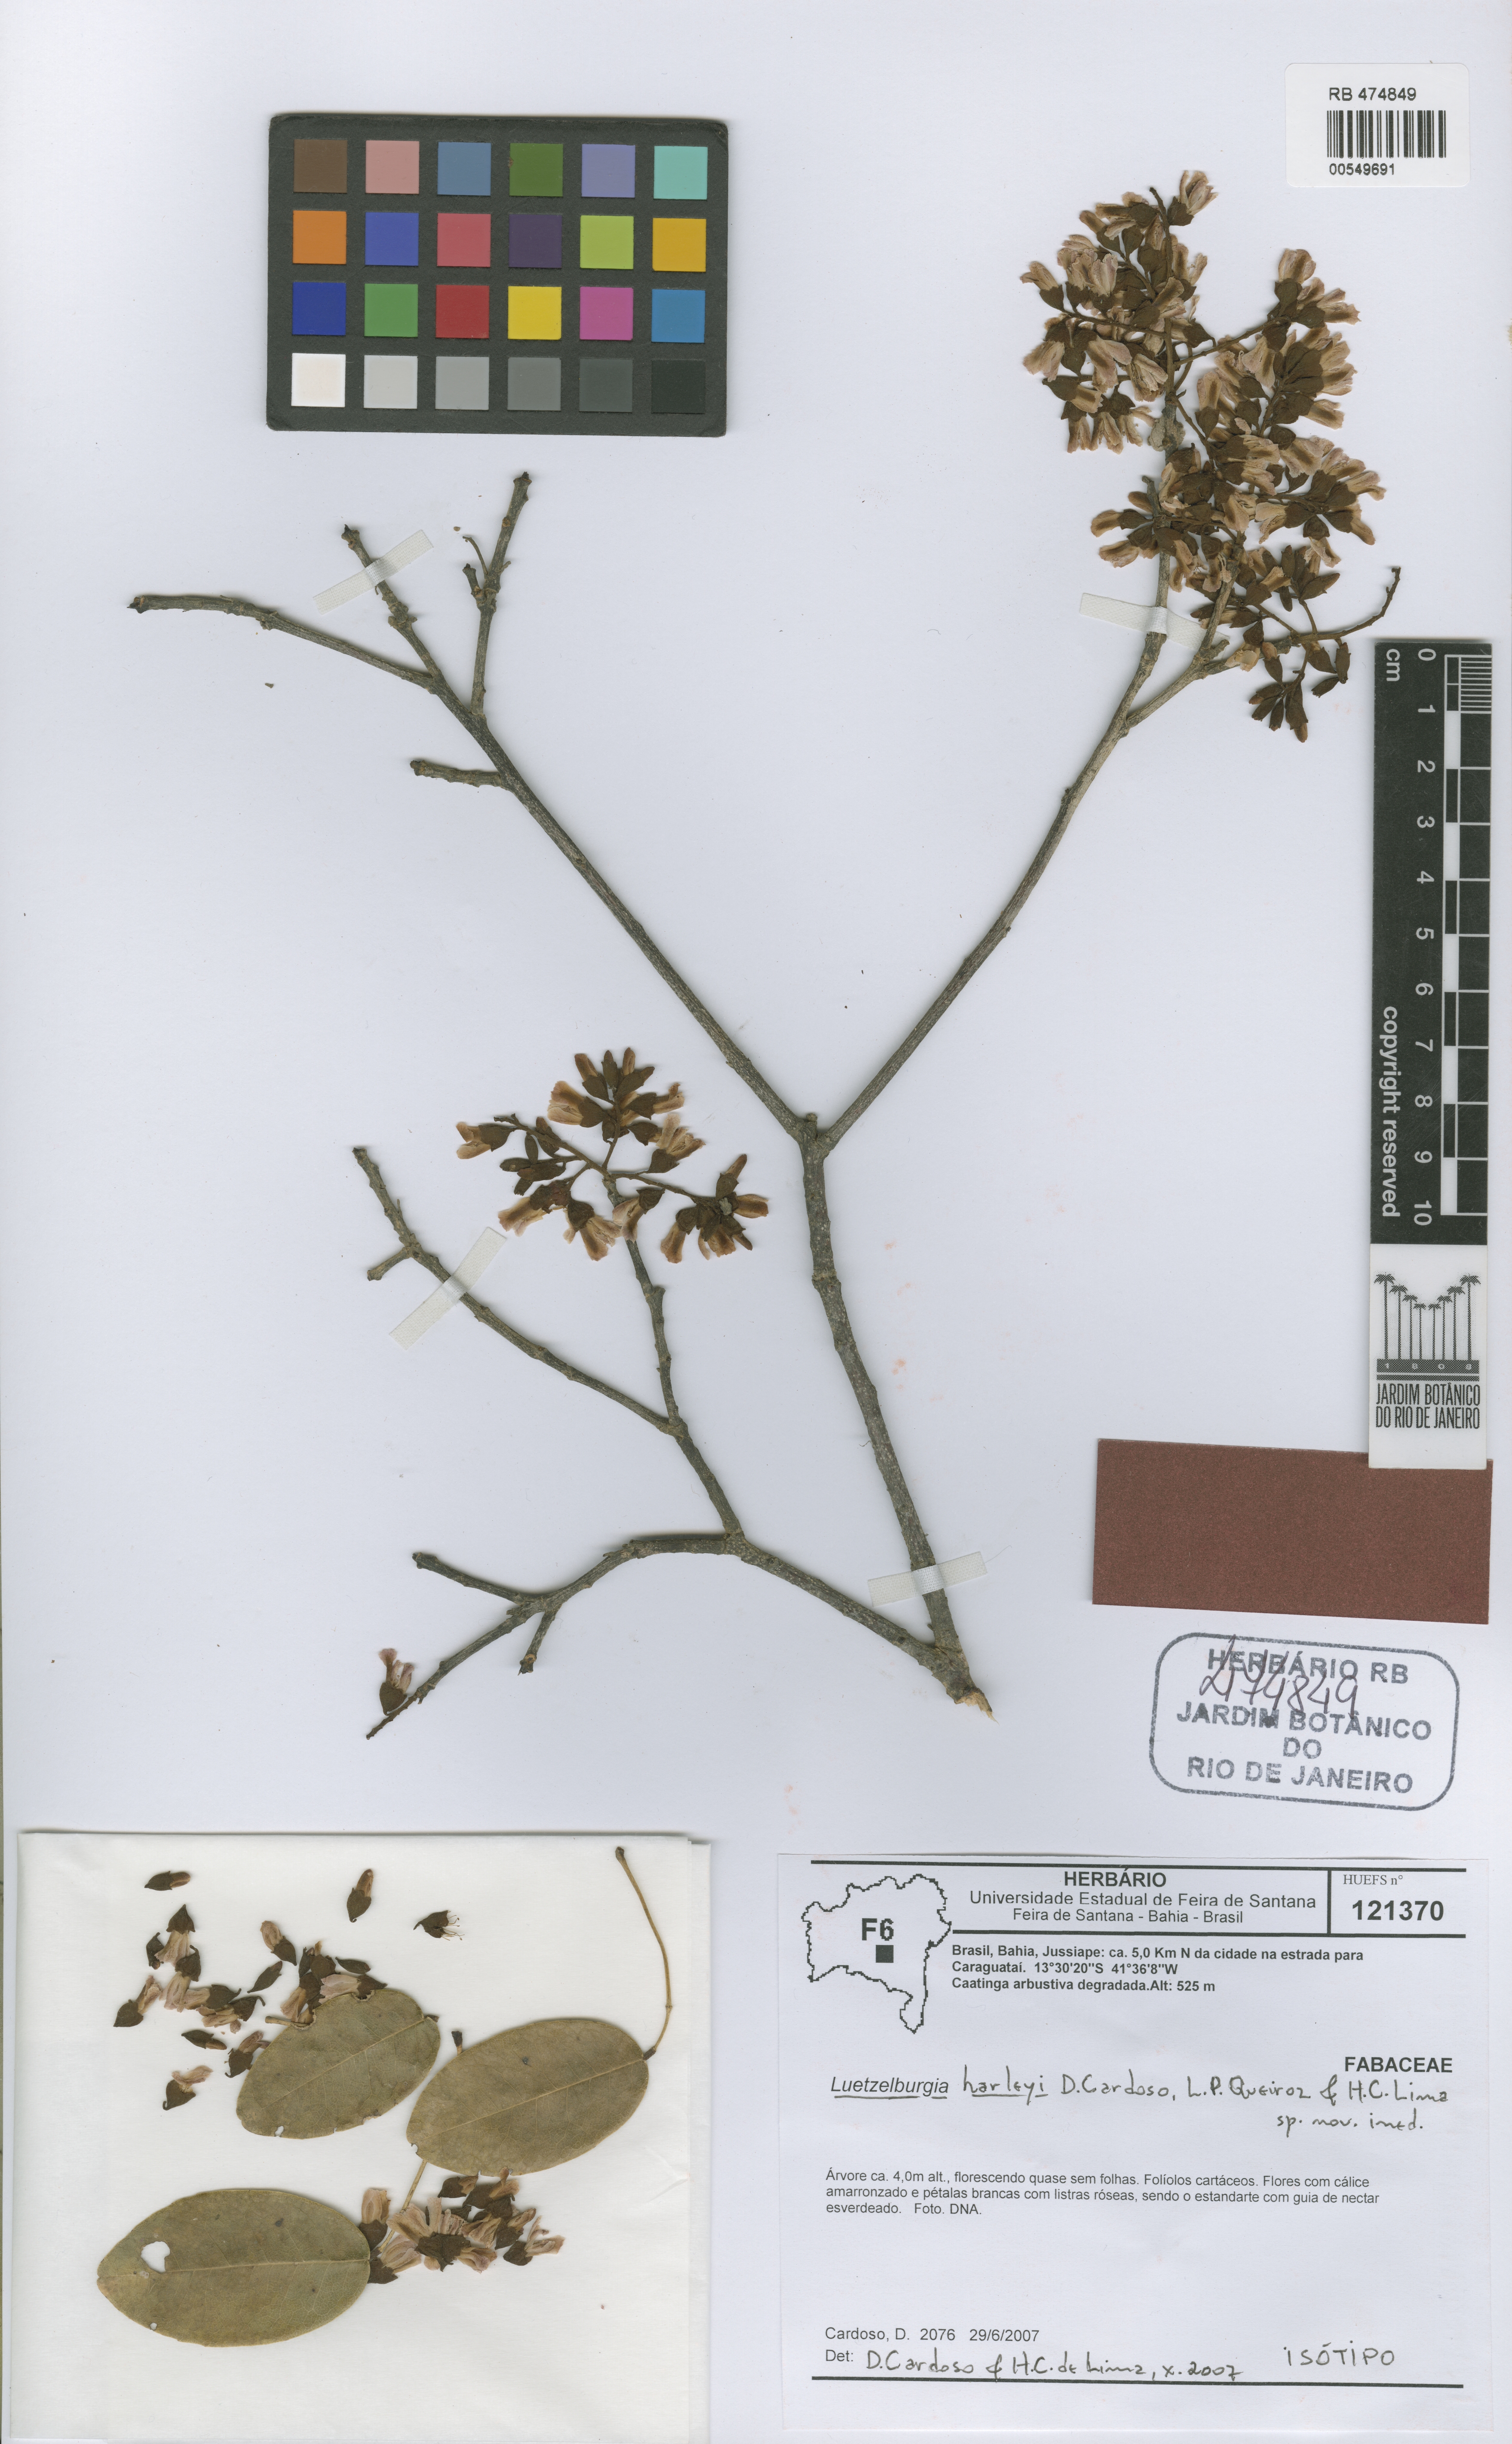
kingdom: Plantae
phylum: Tracheophyta
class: Magnoliopsida
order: Fabales
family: Fabaceae
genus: Luetzelburgia
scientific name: Luetzelburgia harleyi
